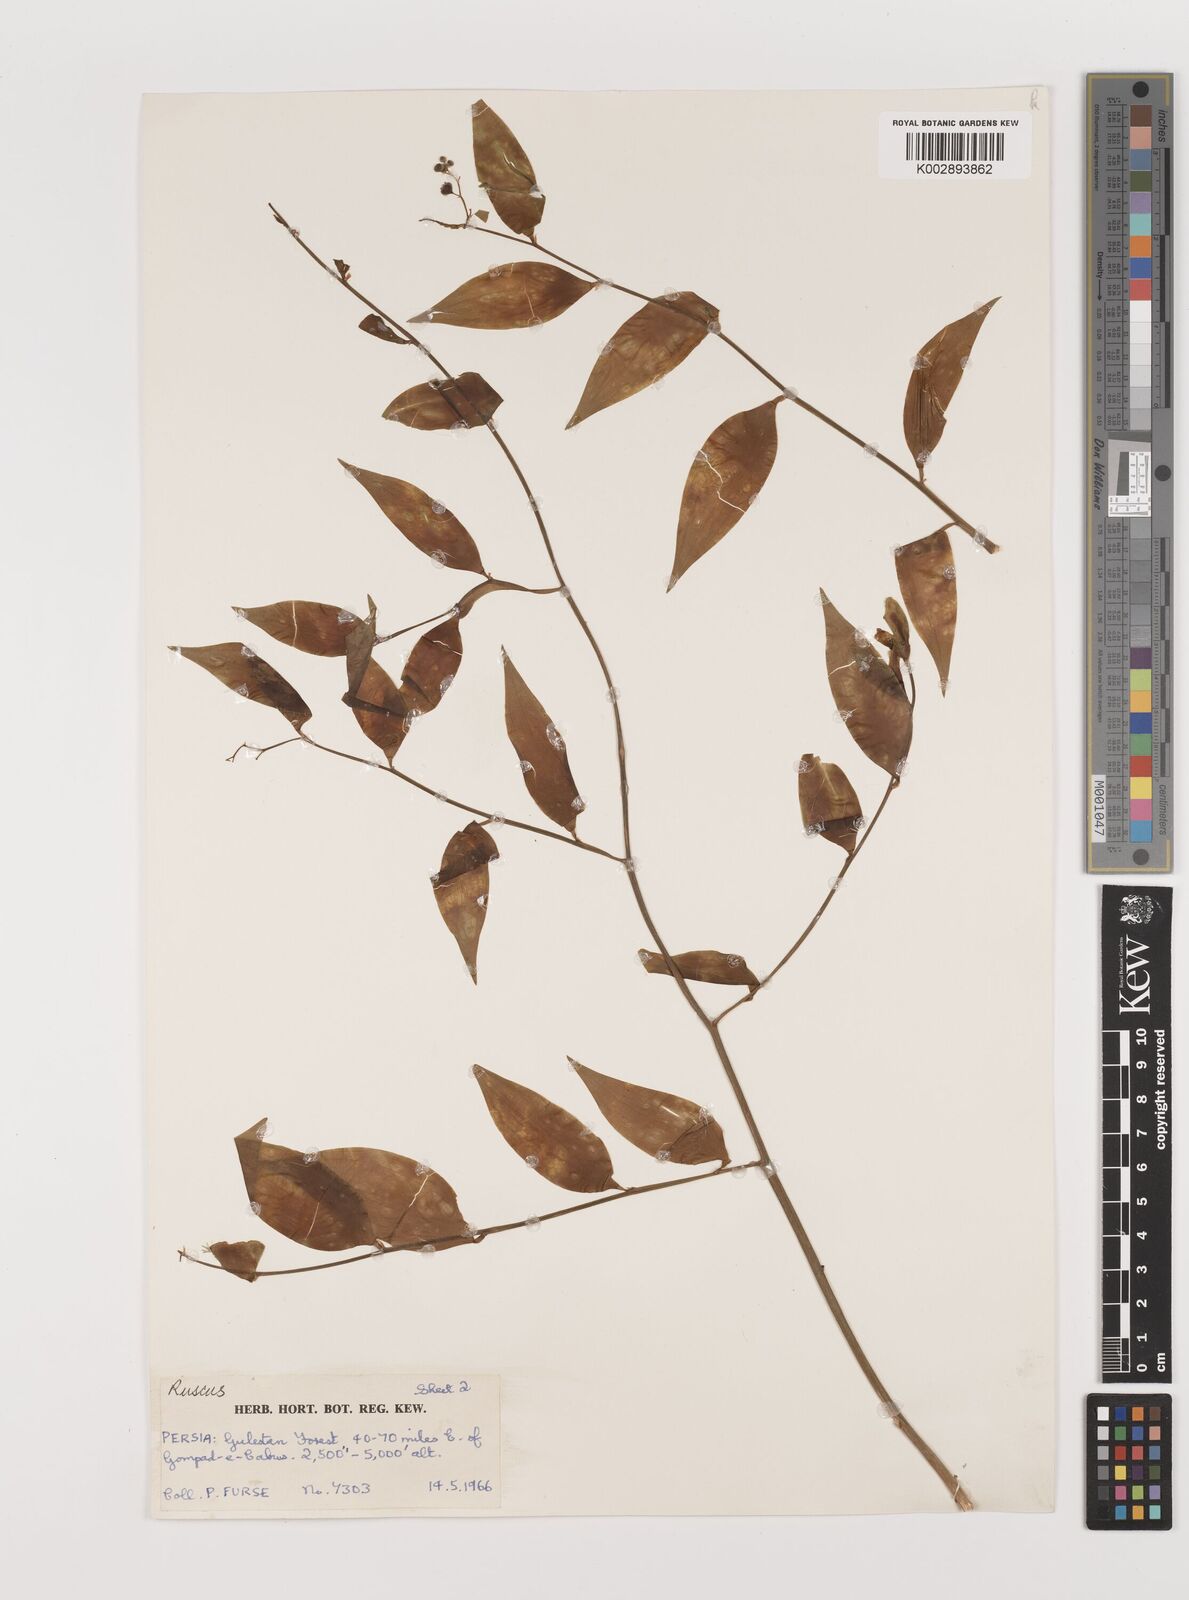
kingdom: Plantae
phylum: Tracheophyta
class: Liliopsida
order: Asparagales
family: Asparagaceae
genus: Danae
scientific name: Danae racemosa
